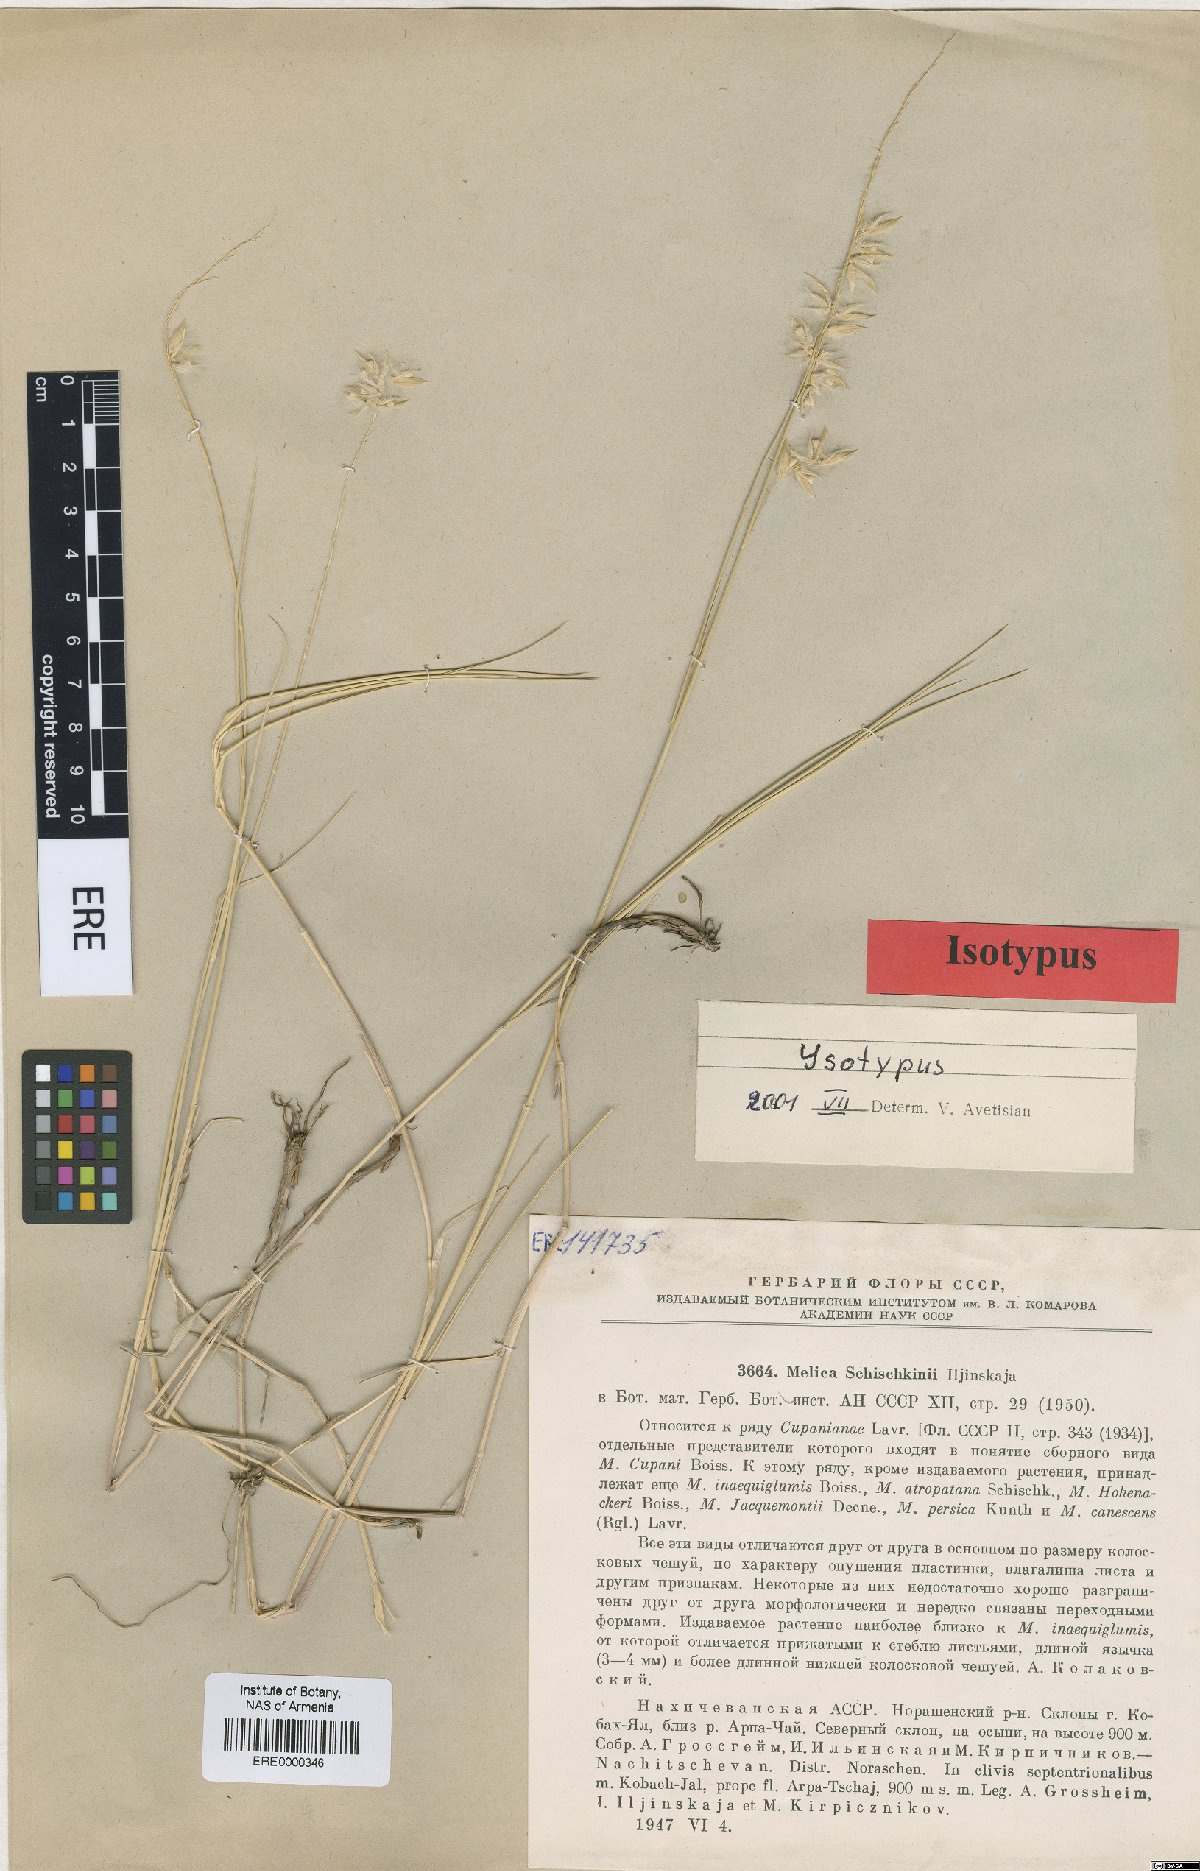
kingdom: Plantae
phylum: Tracheophyta
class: Liliopsida
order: Poales
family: Poaceae
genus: Melica
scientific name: Melica persica
